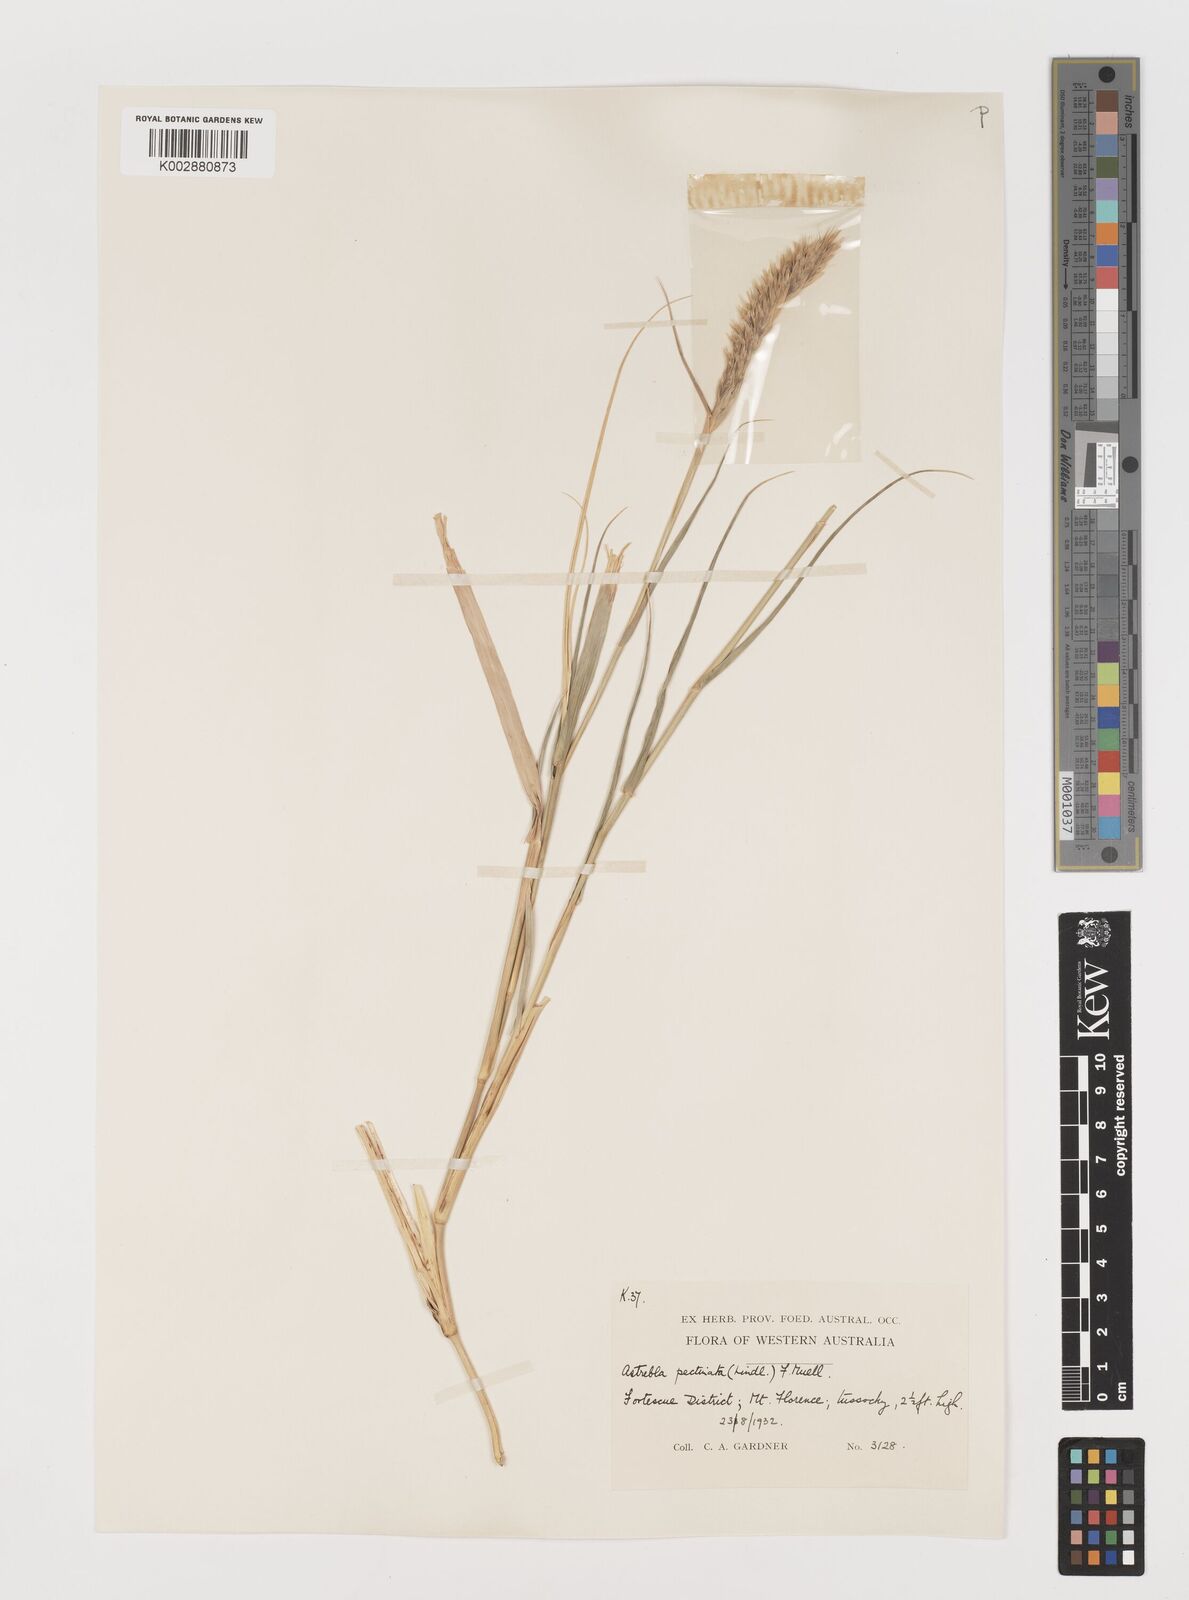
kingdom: Plantae
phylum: Tracheophyta
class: Liliopsida
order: Poales
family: Poaceae
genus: Astrebla
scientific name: Astrebla pectinata
